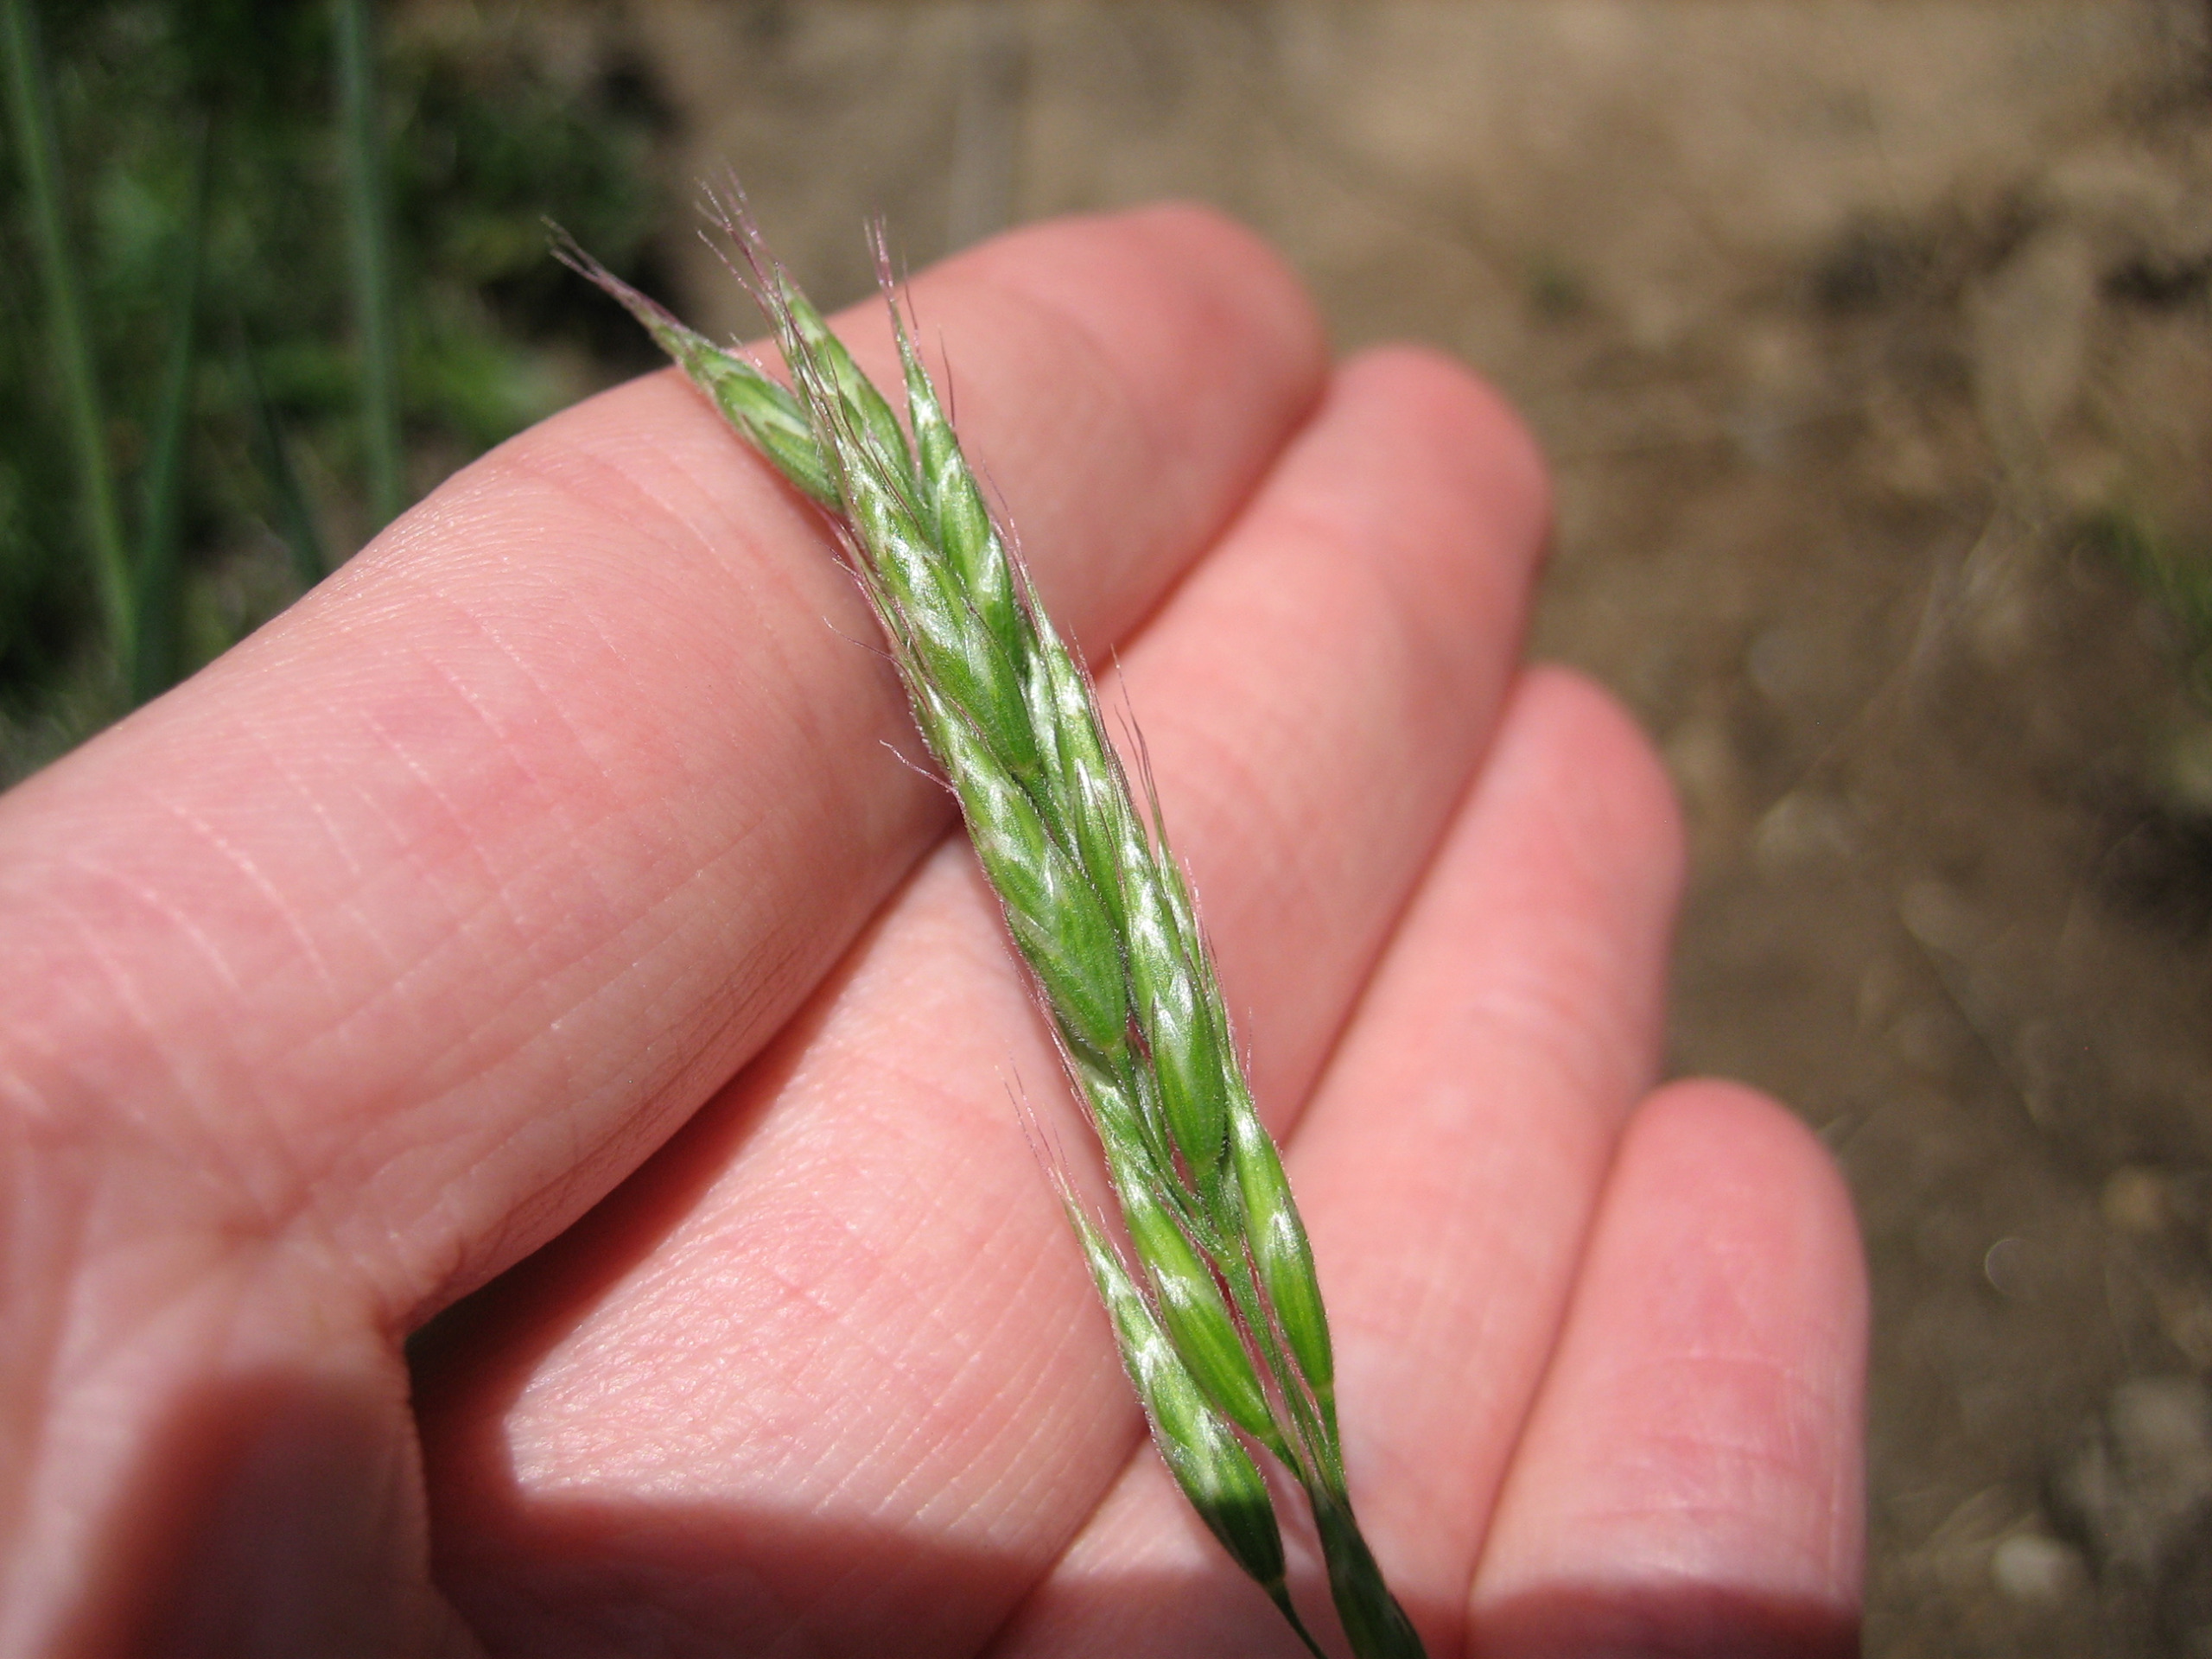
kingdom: Plantae
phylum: Tracheophyta
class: Liliopsida
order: Poales
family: Poaceae
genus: Bromus
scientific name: Bromus hordeaceus
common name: Blød hejre
